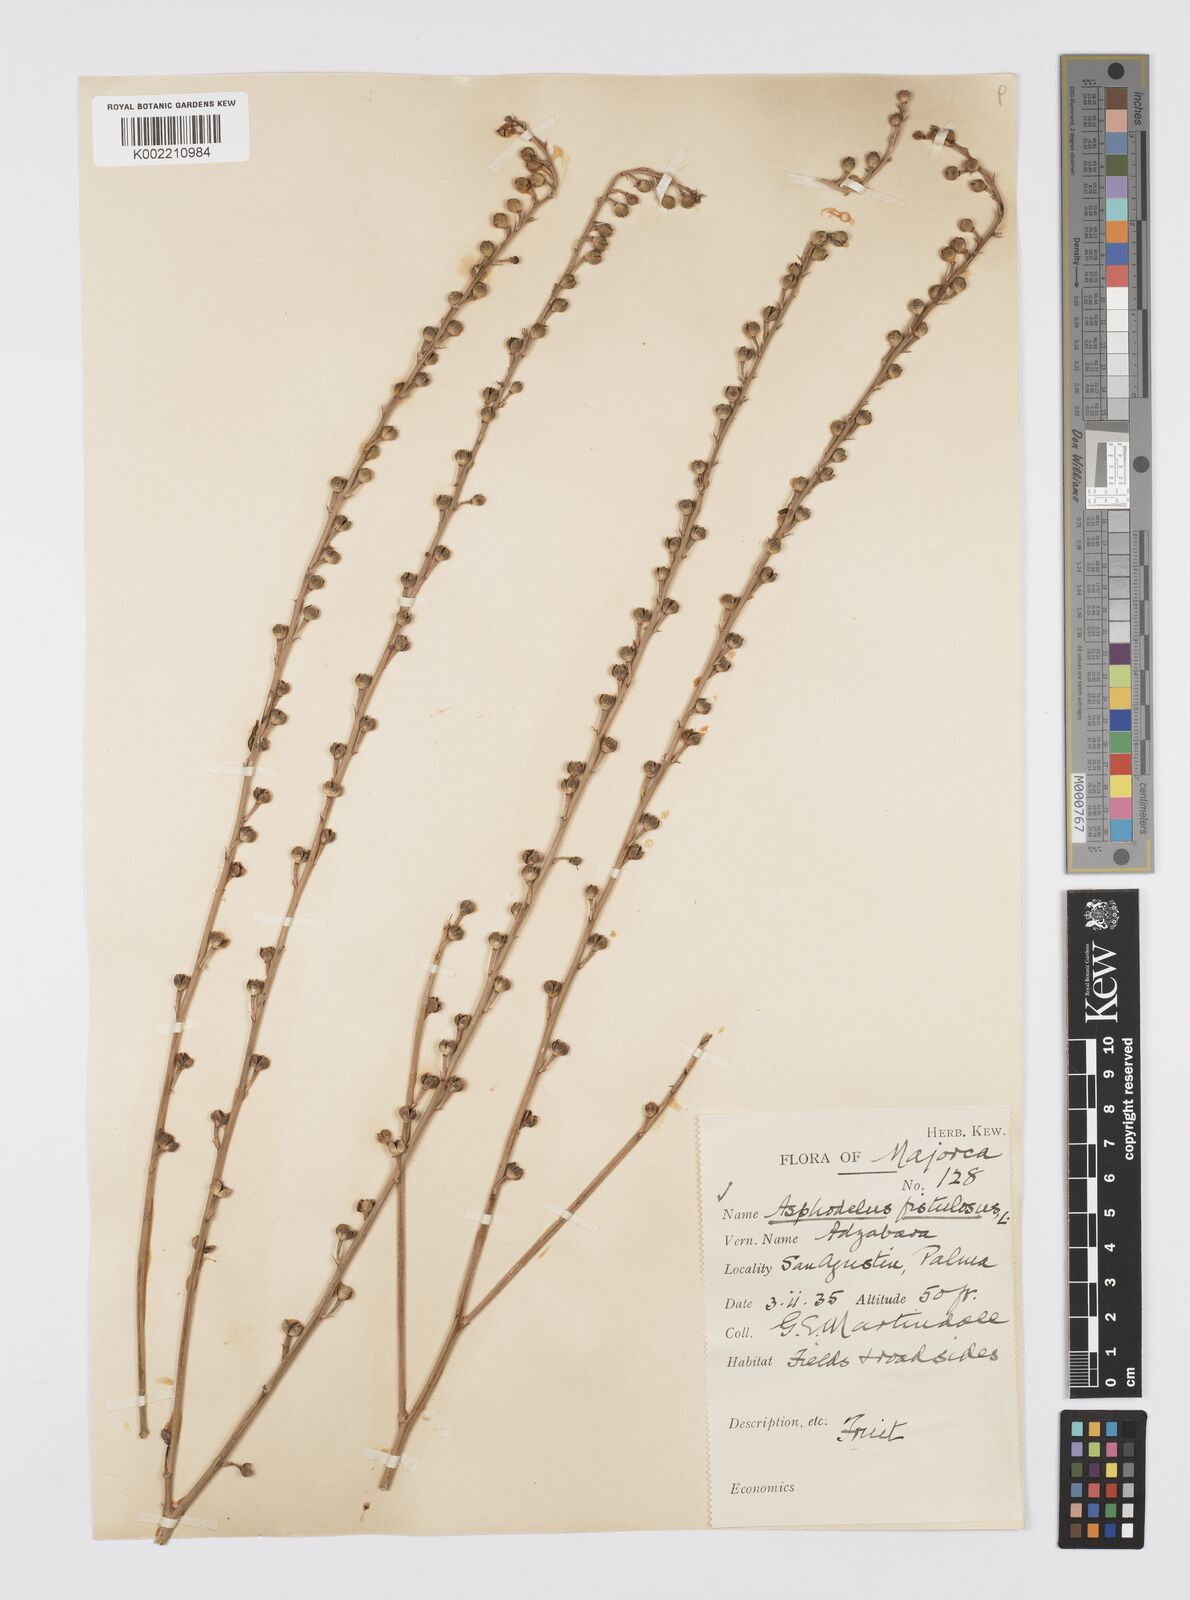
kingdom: Plantae
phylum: Tracheophyta
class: Liliopsida
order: Asparagales
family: Asphodelaceae
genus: Asphodelus
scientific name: Asphodelus fistulosus
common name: Onionweed
